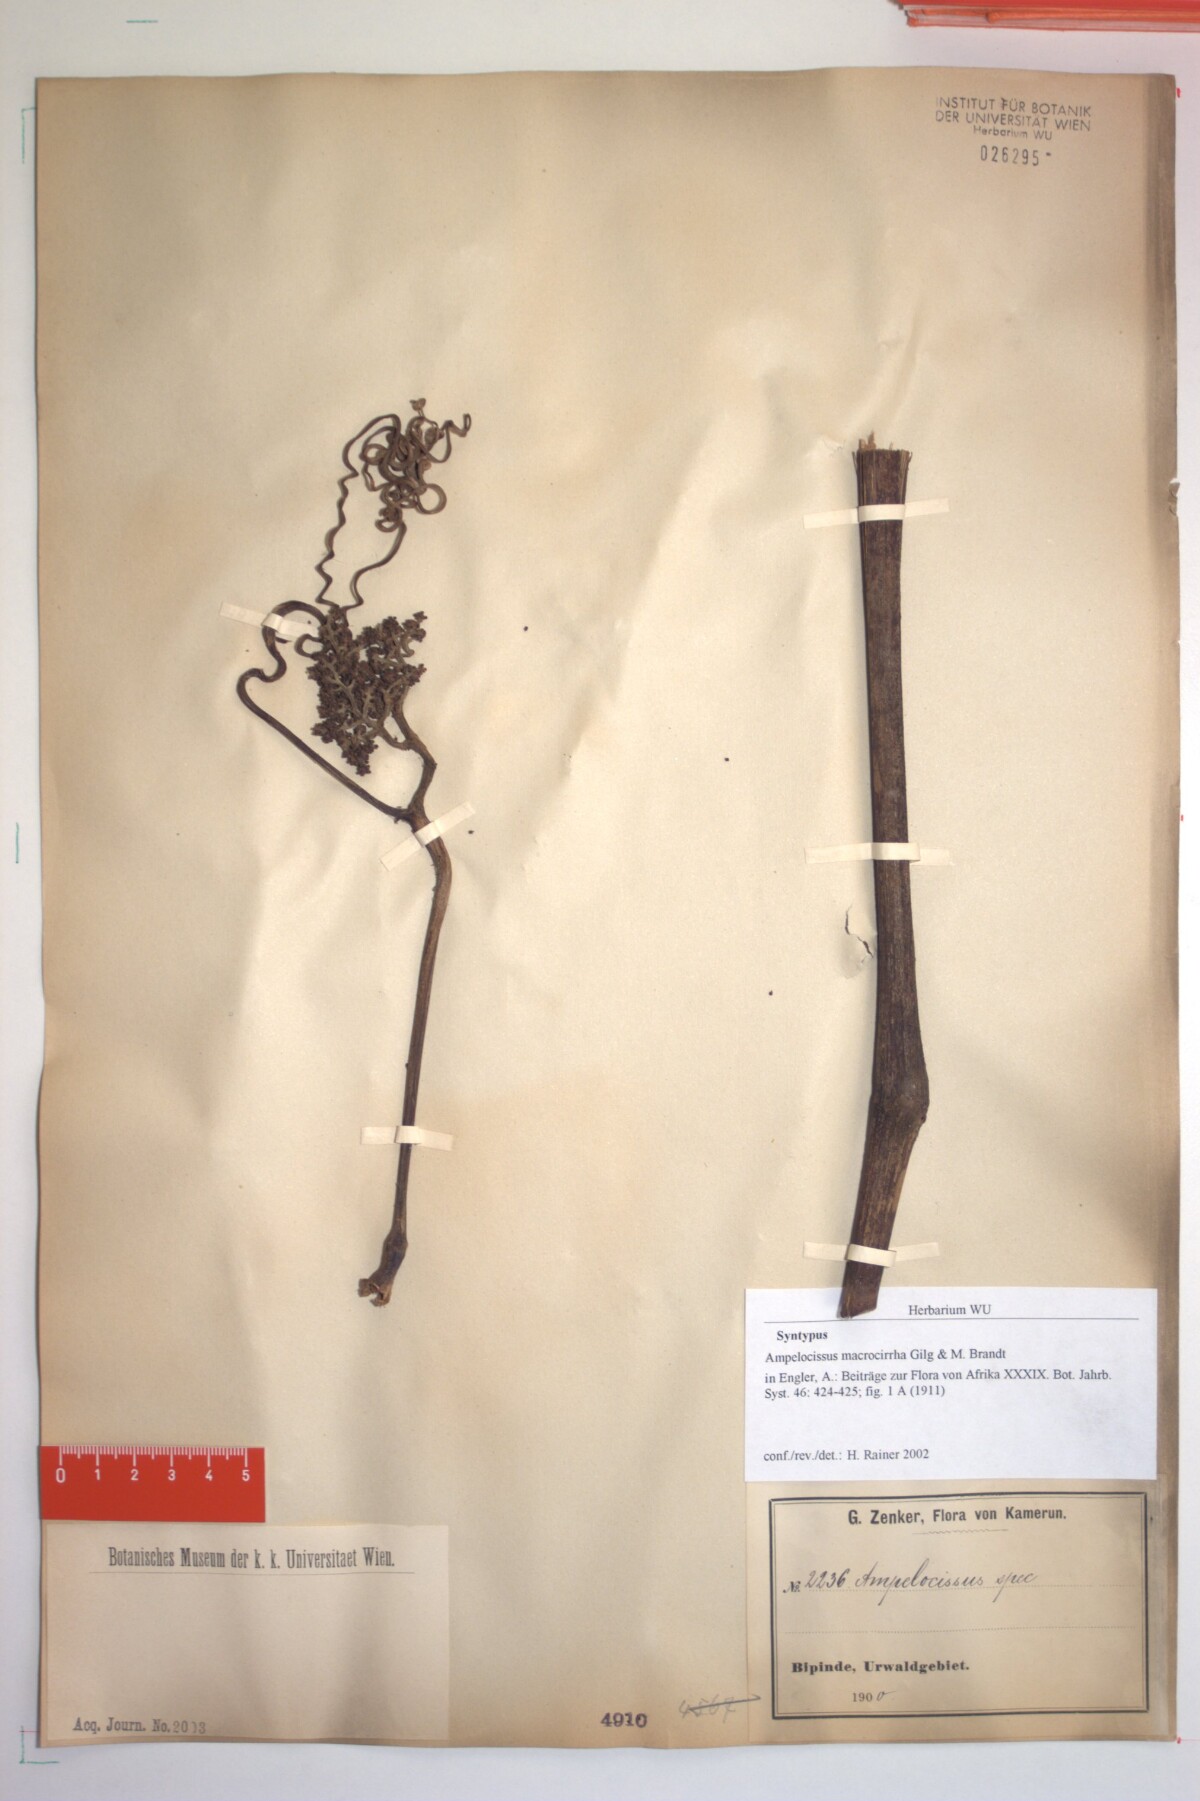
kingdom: Plantae
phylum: Tracheophyta
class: Magnoliopsida
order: Vitales
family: Vitaceae
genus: Ampelocissus
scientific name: Ampelocissus macrocirrha
